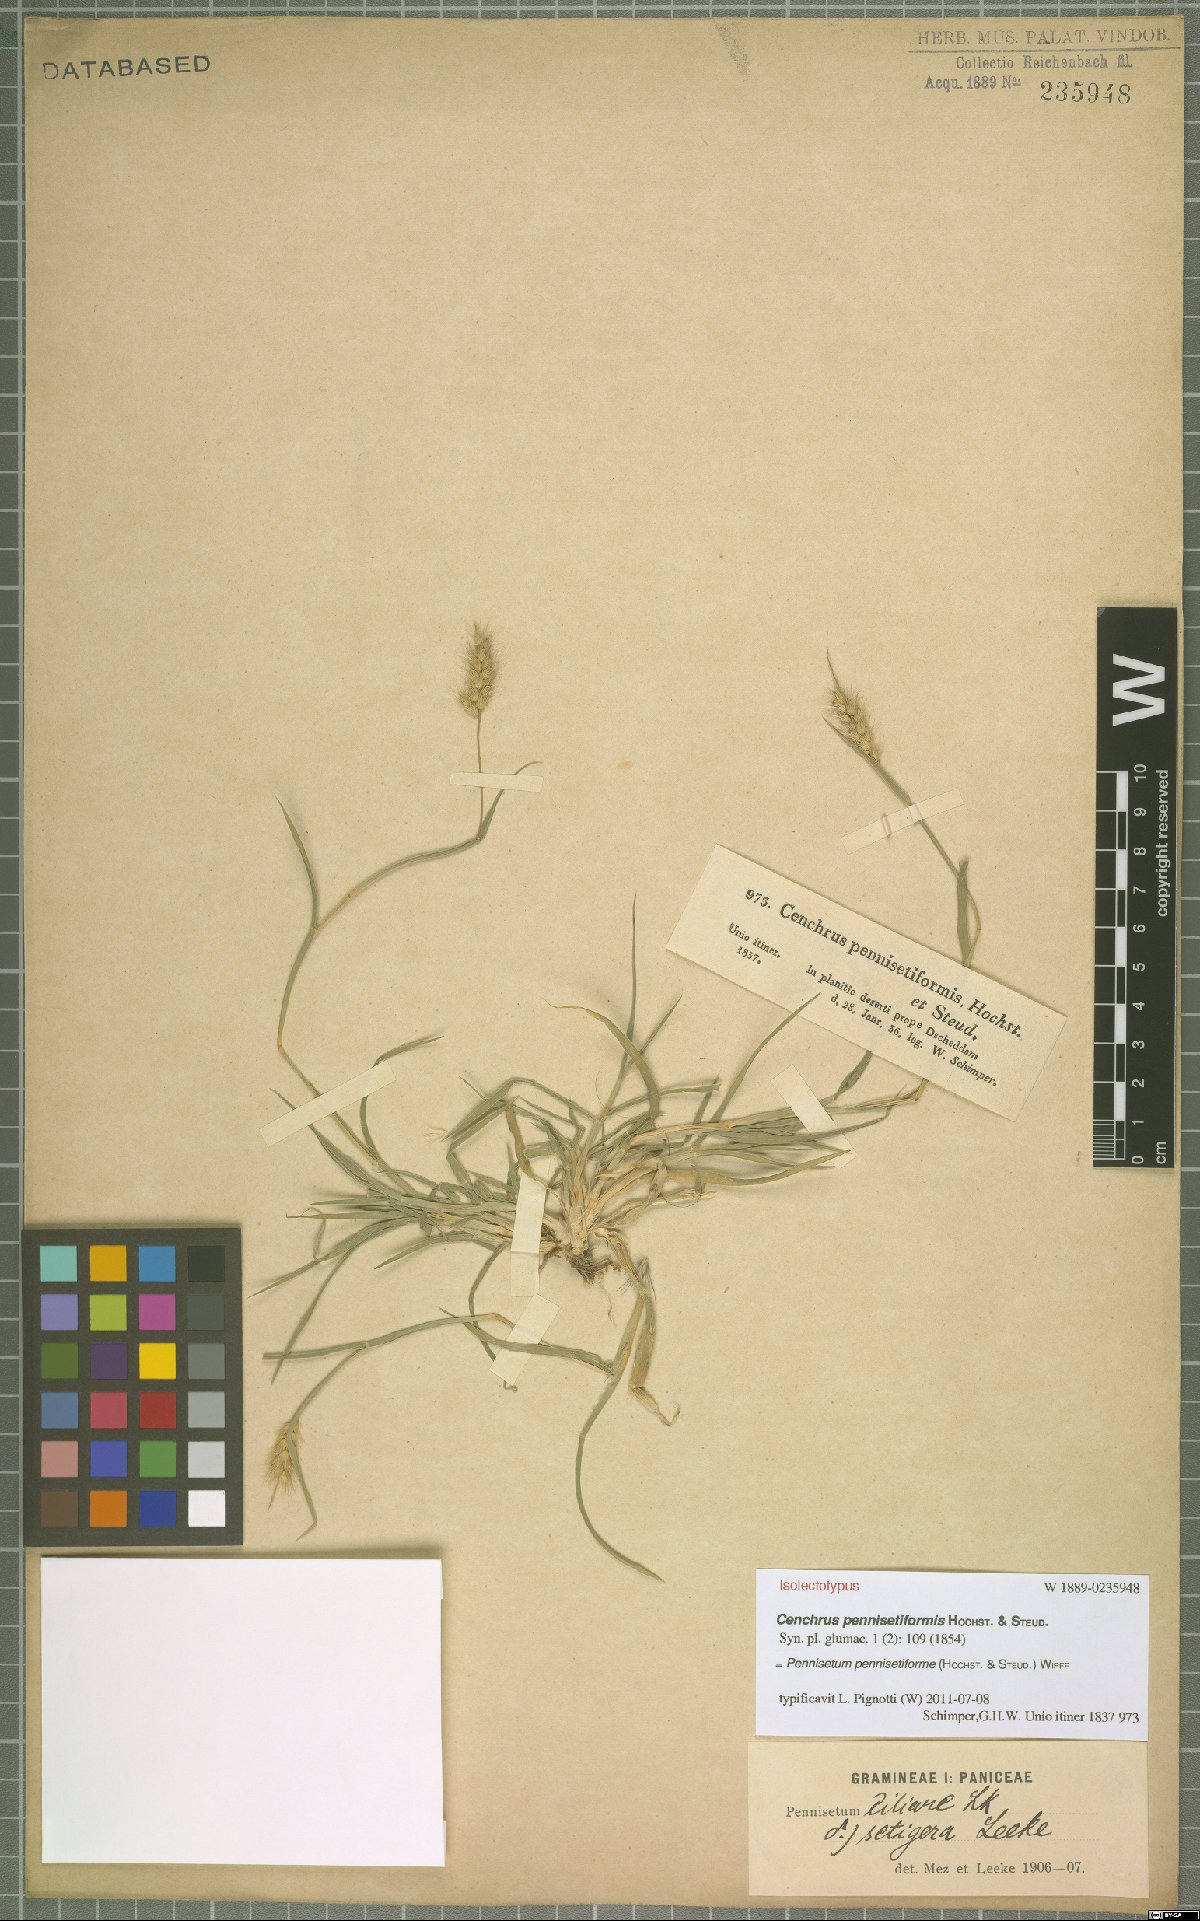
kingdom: Plantae
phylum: Tracheophyta
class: Liliopsida
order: Poales
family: Poaceae
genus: Cenchrus
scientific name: Cenchrus pennisetiformis
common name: Cloncurry
